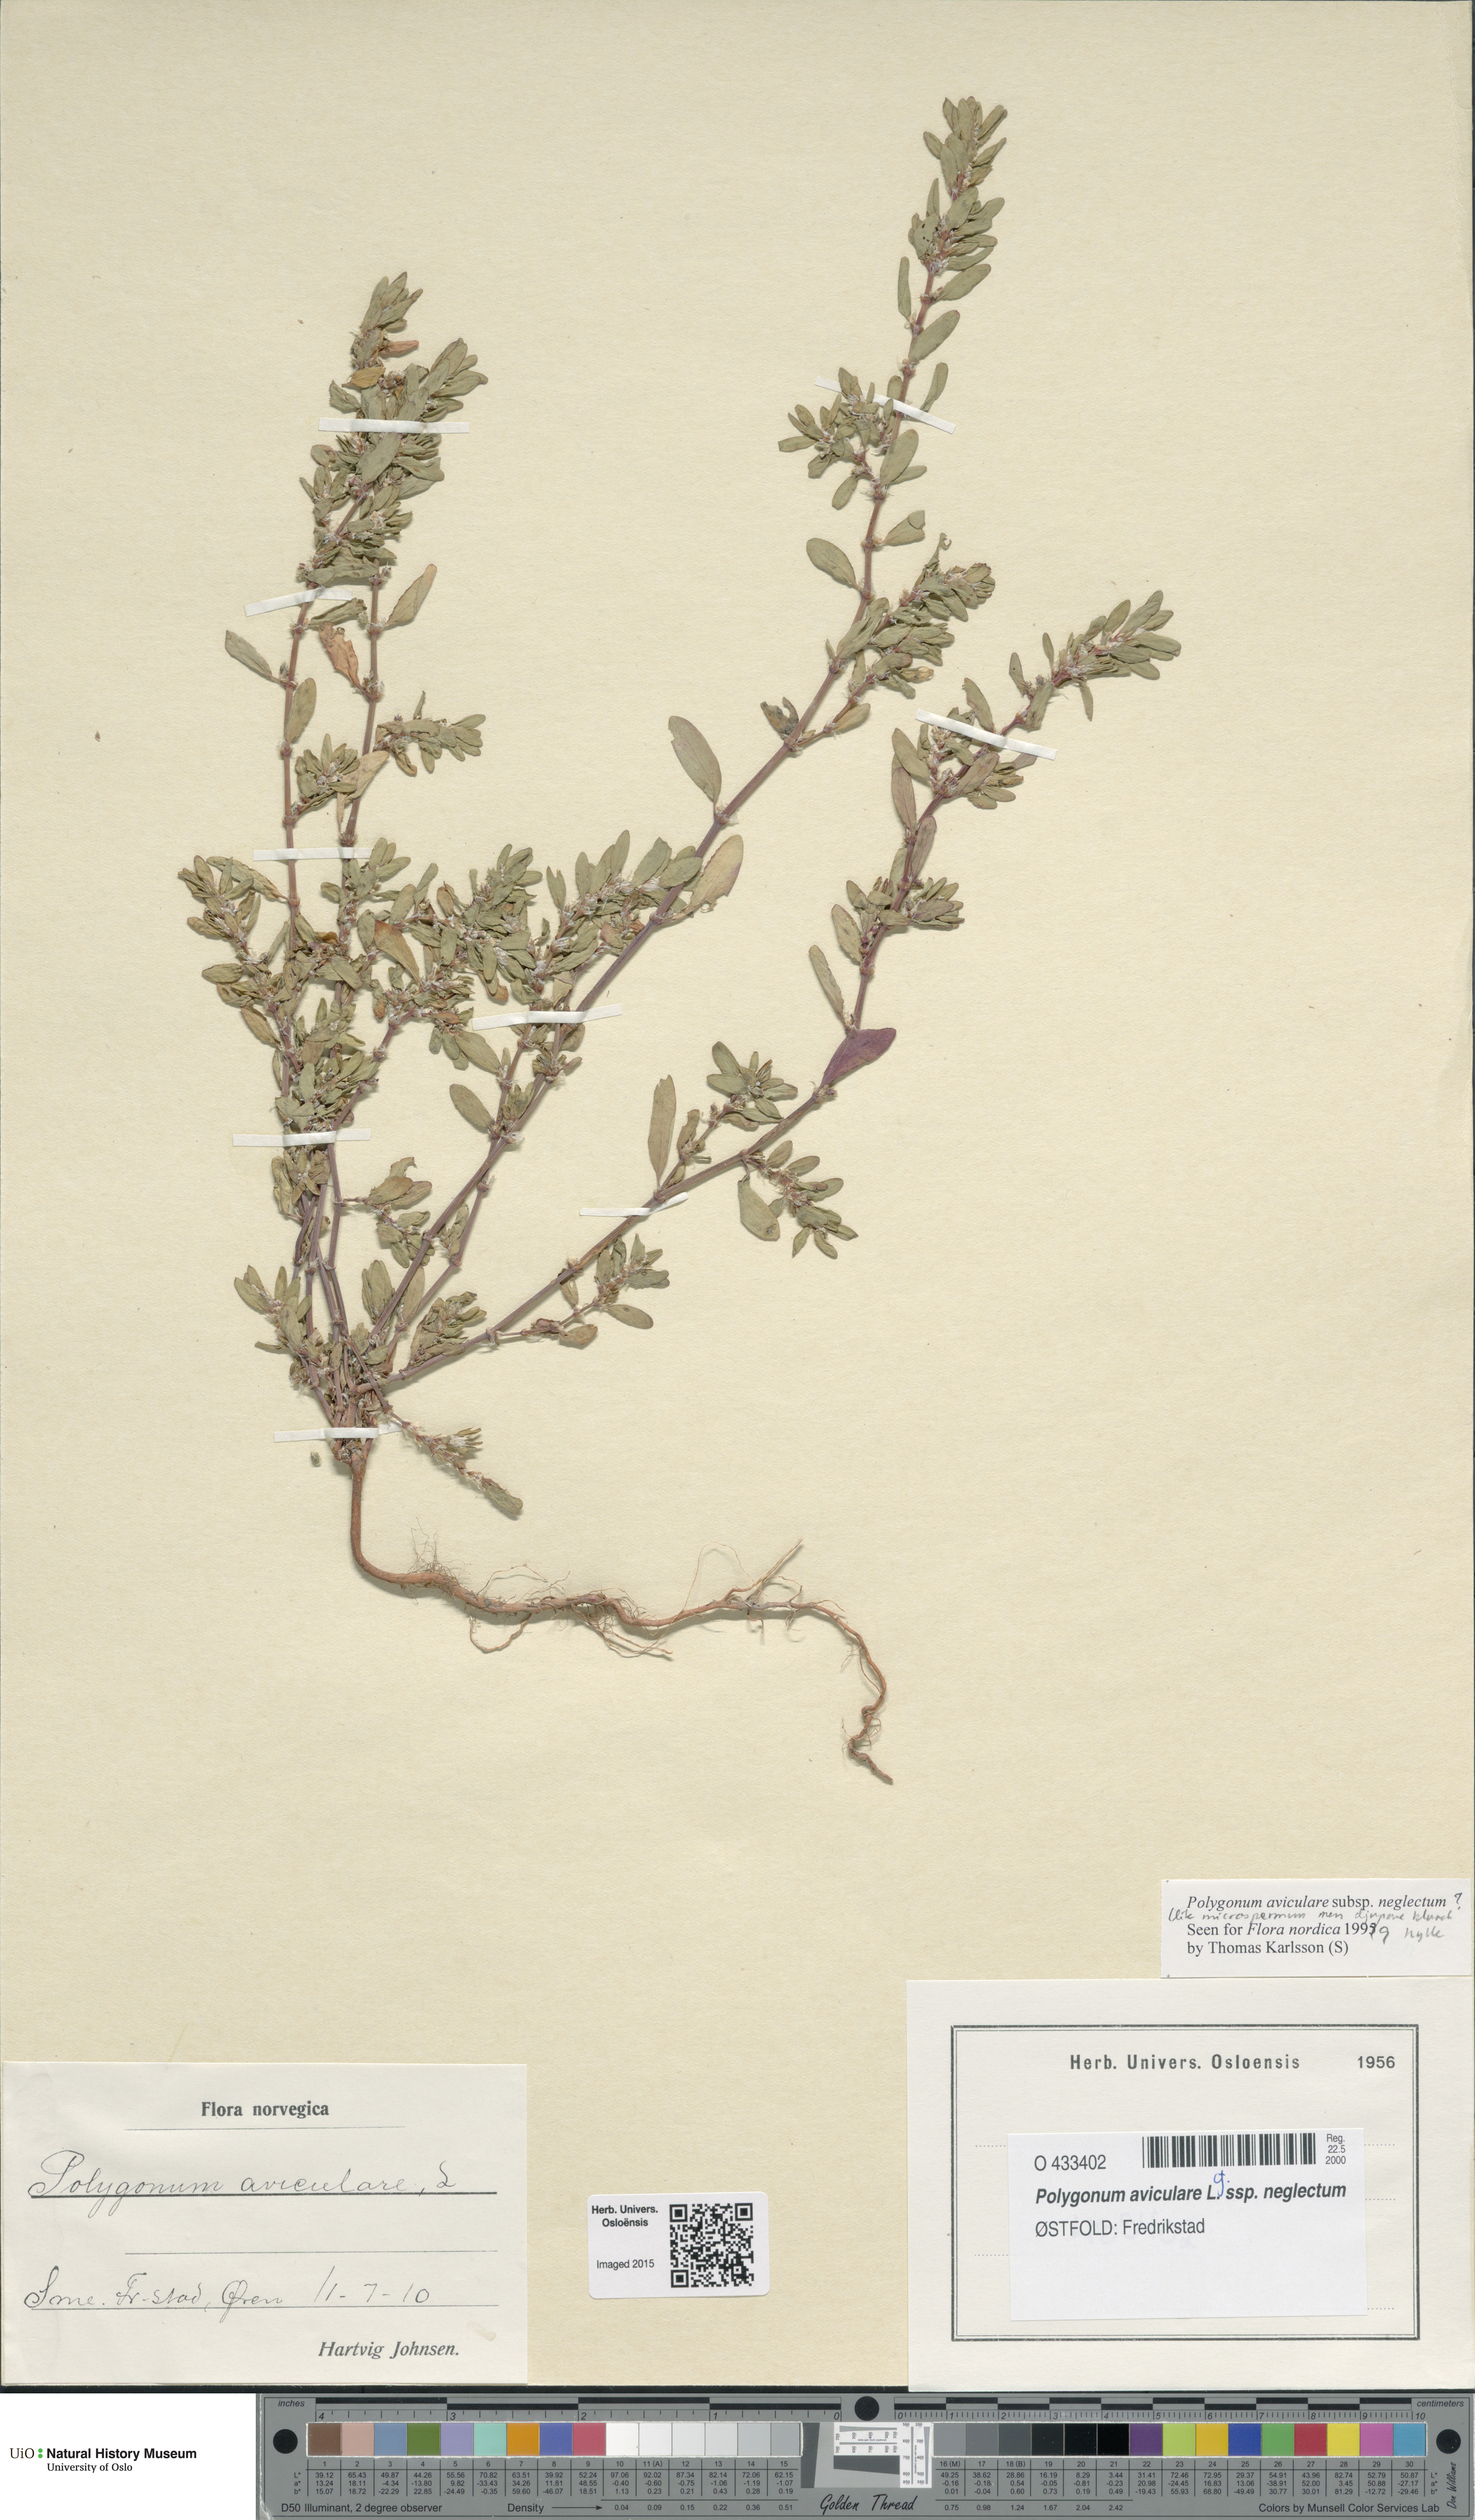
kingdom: Plantae
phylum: Tracheophyta
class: Magnoliopsida
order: Caryophyllales
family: Polygonaceae
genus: Polygonum
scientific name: Polygonum aviculare
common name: Prostrate knotweed
